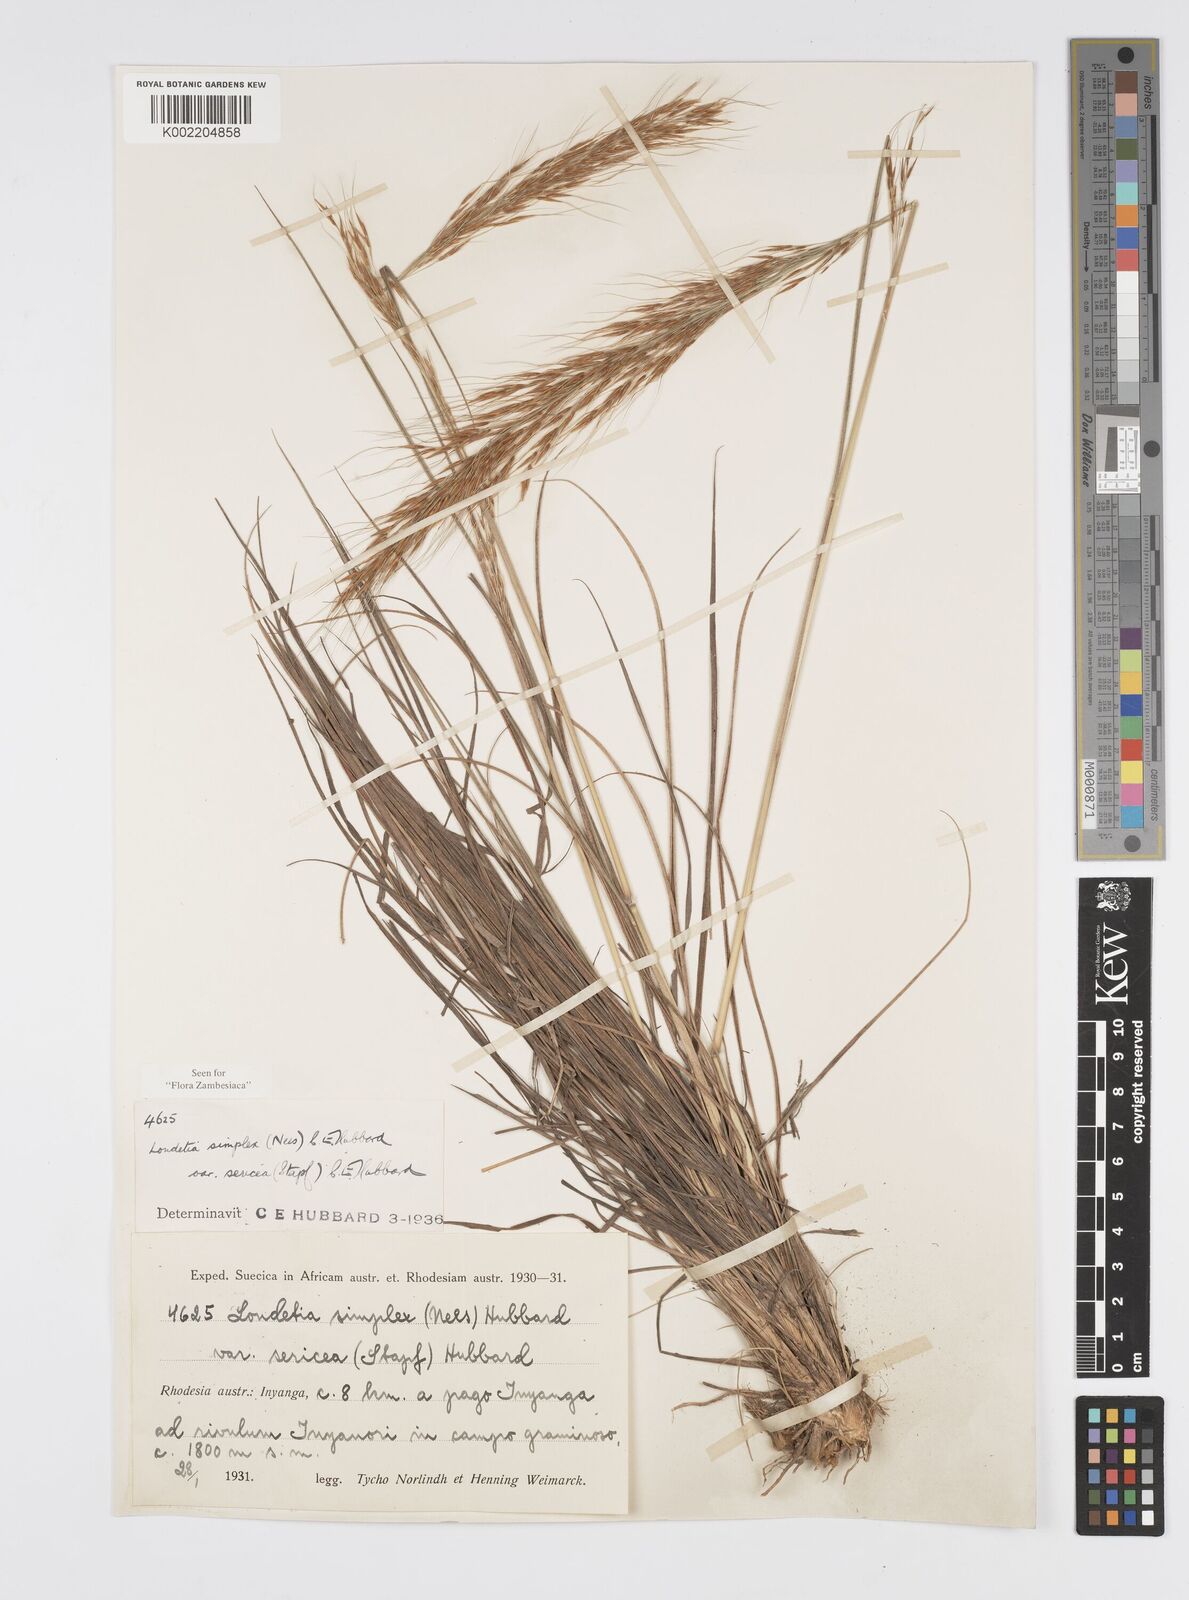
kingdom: Plantae
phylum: Tracheophyta
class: Liliopsida
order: Poales
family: Poaceae
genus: Loudetia
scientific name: Loudetia simplex
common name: Common russet grass
